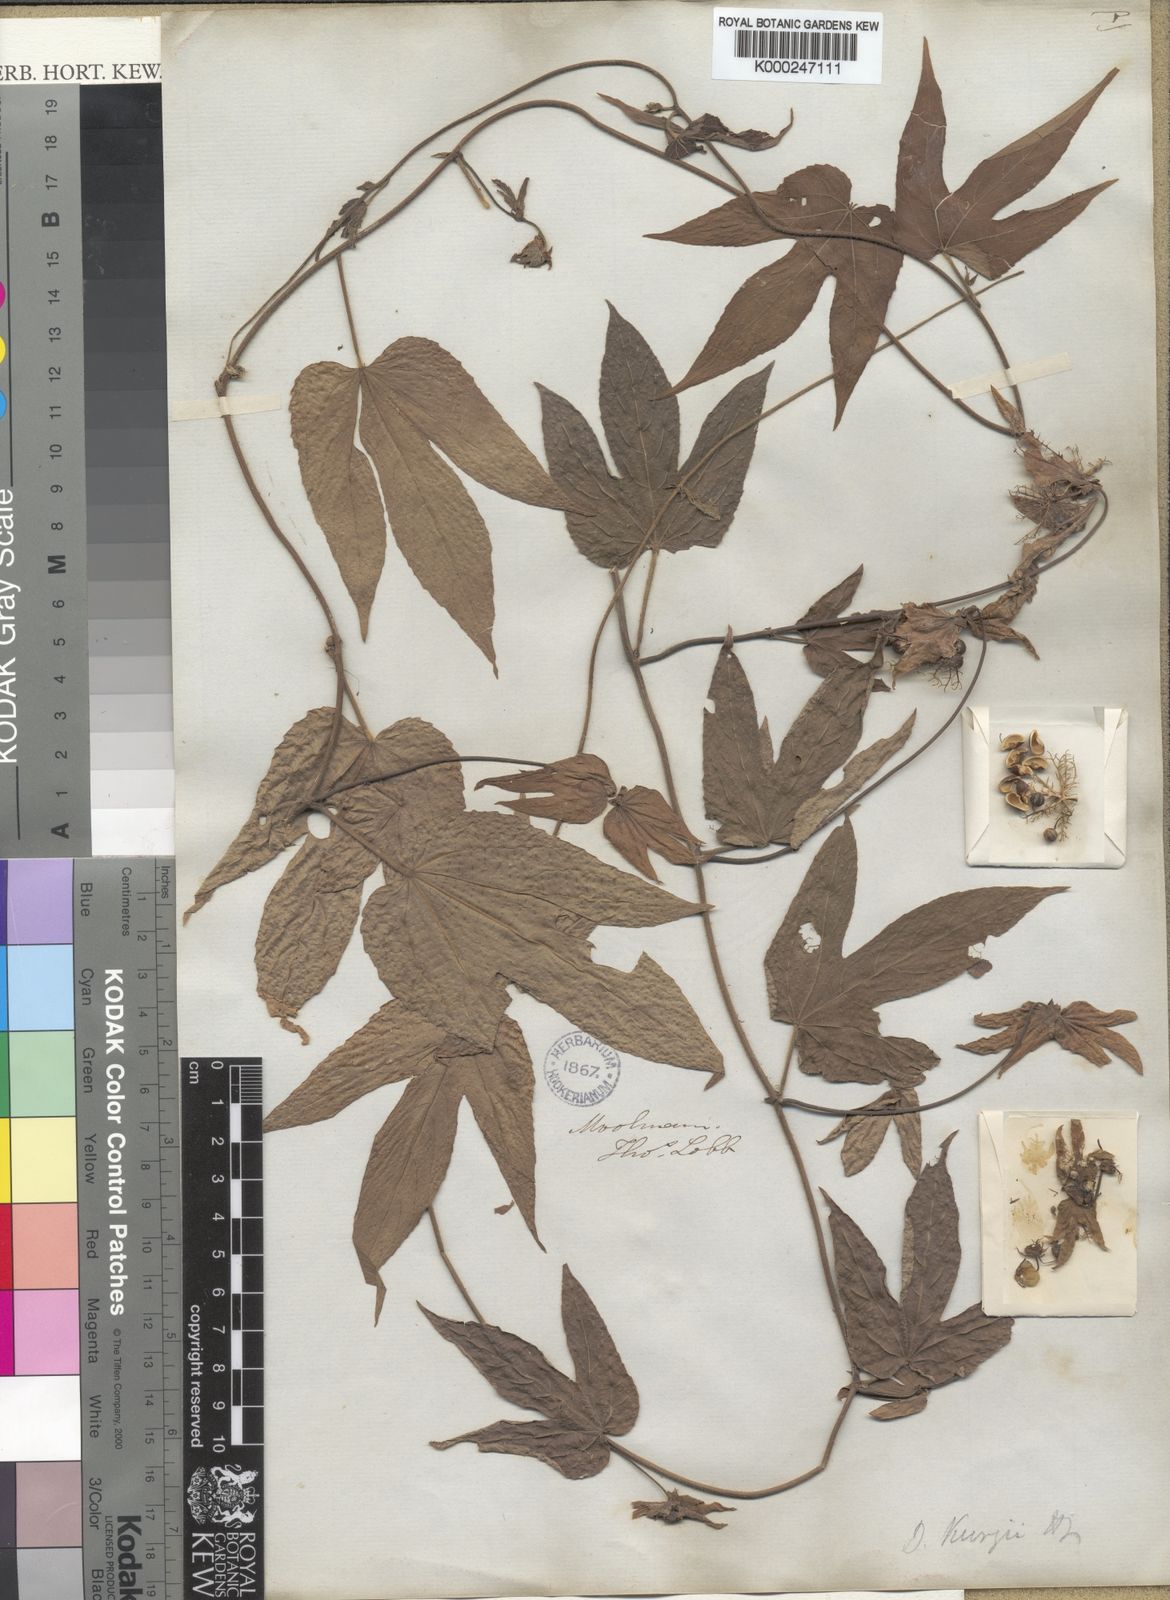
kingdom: Plantae
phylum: Tracheophyta
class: Magnoliopsida
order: Malpighiales
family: Euphorbiaceae
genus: Dalechampia
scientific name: Dalechampia scandens
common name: Spurgecreeper
